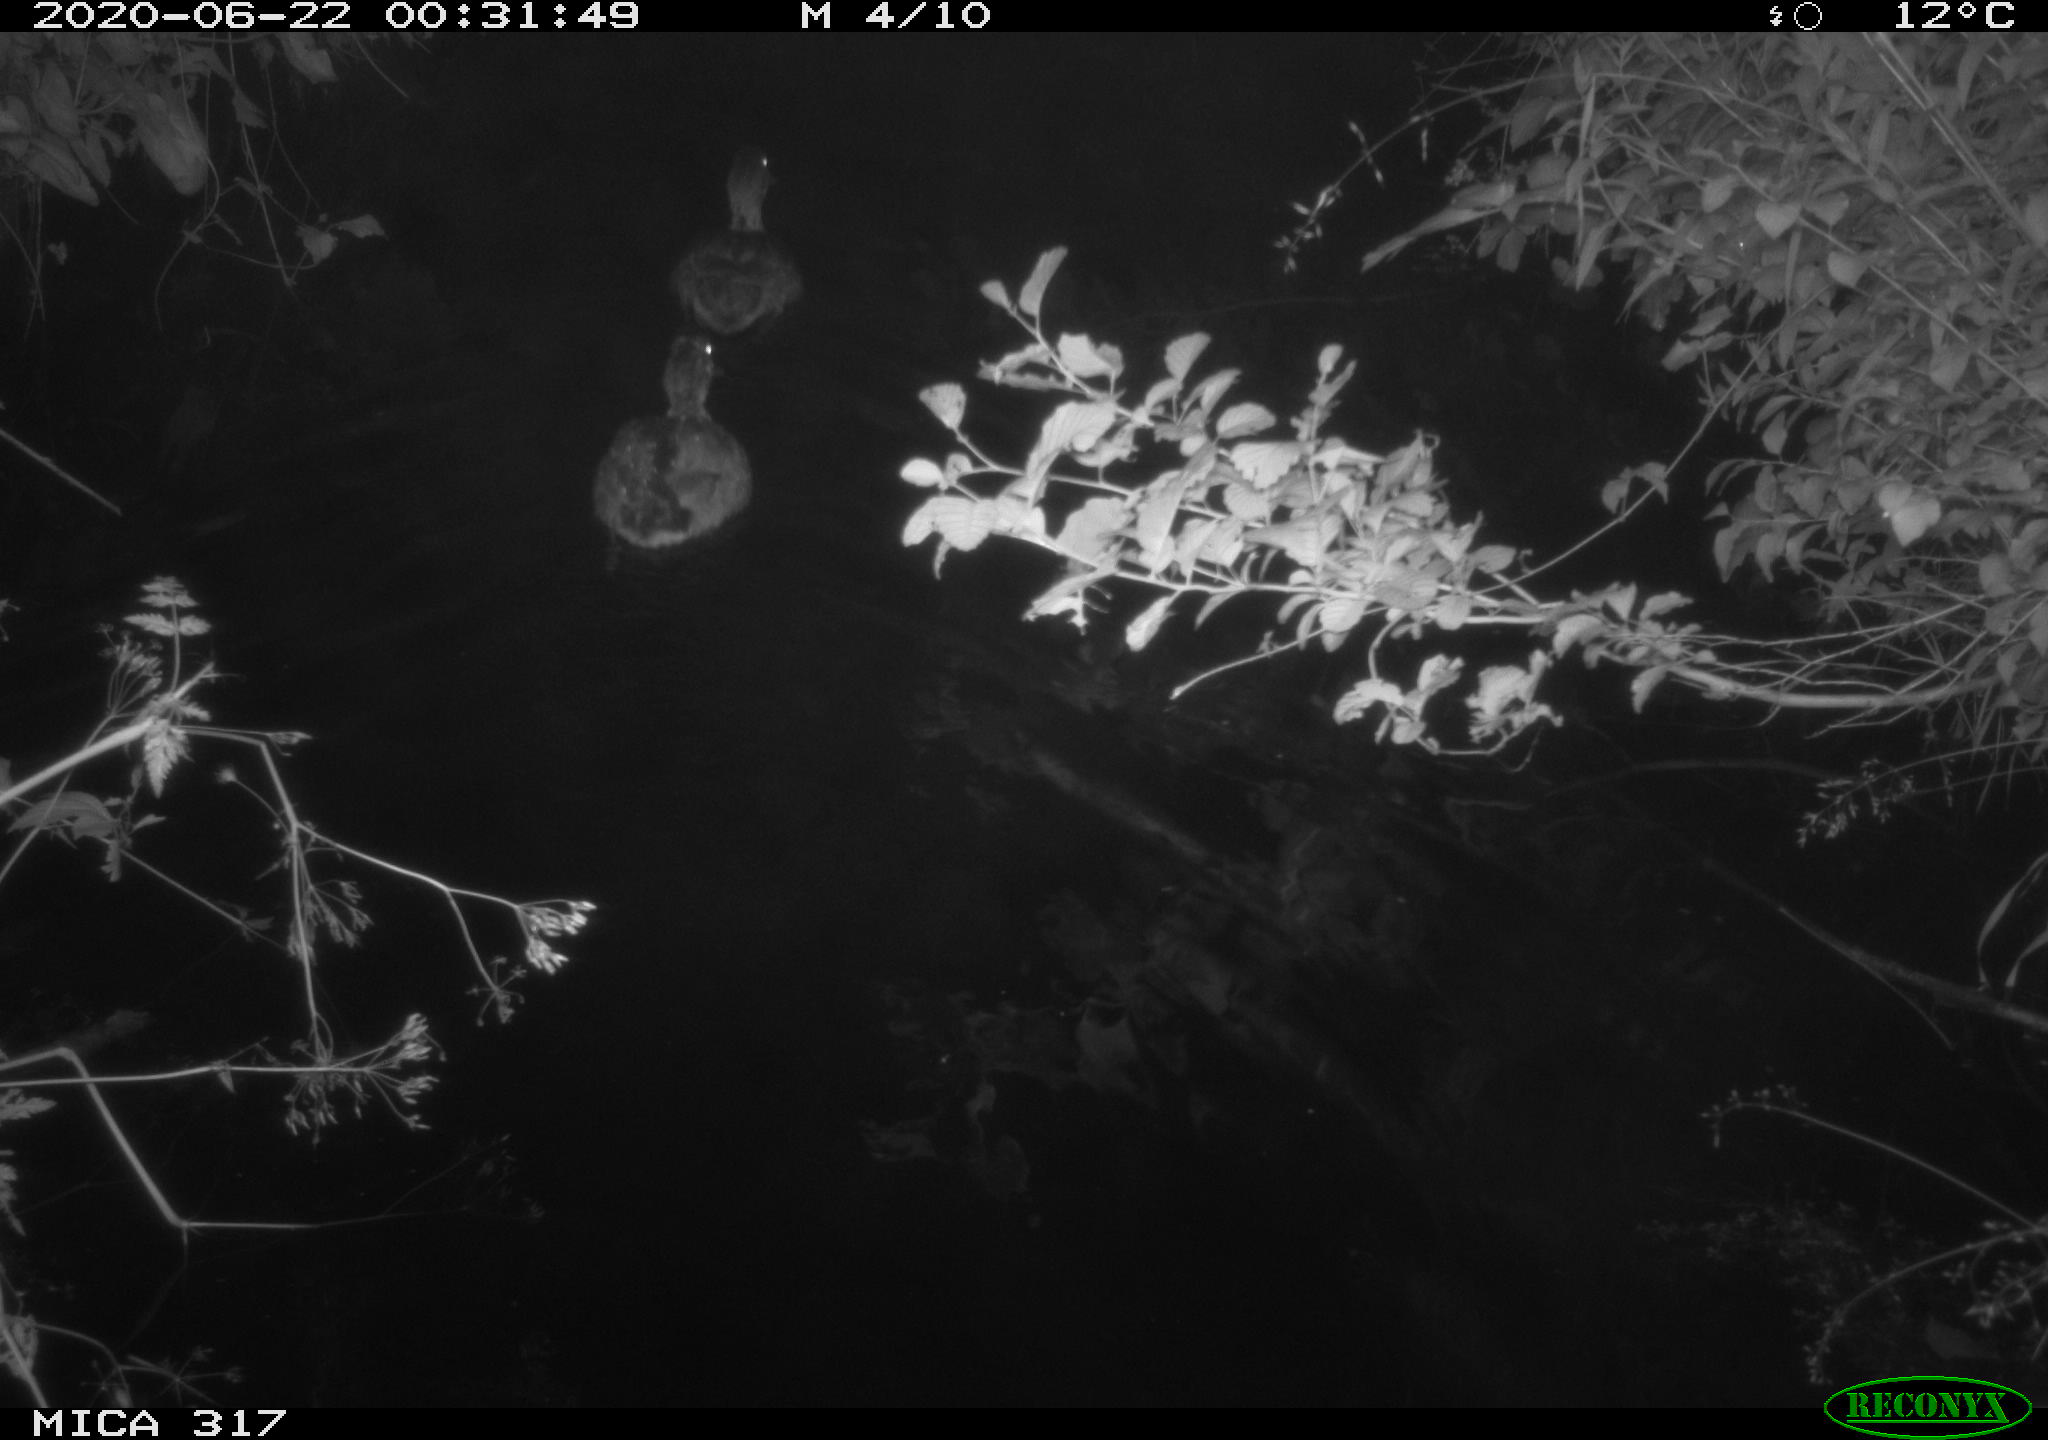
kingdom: Animalia
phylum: Chordata
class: Aves
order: Anseriformes
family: Anatidae
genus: Anas
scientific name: Anas platyrhynchos
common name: Mallard
